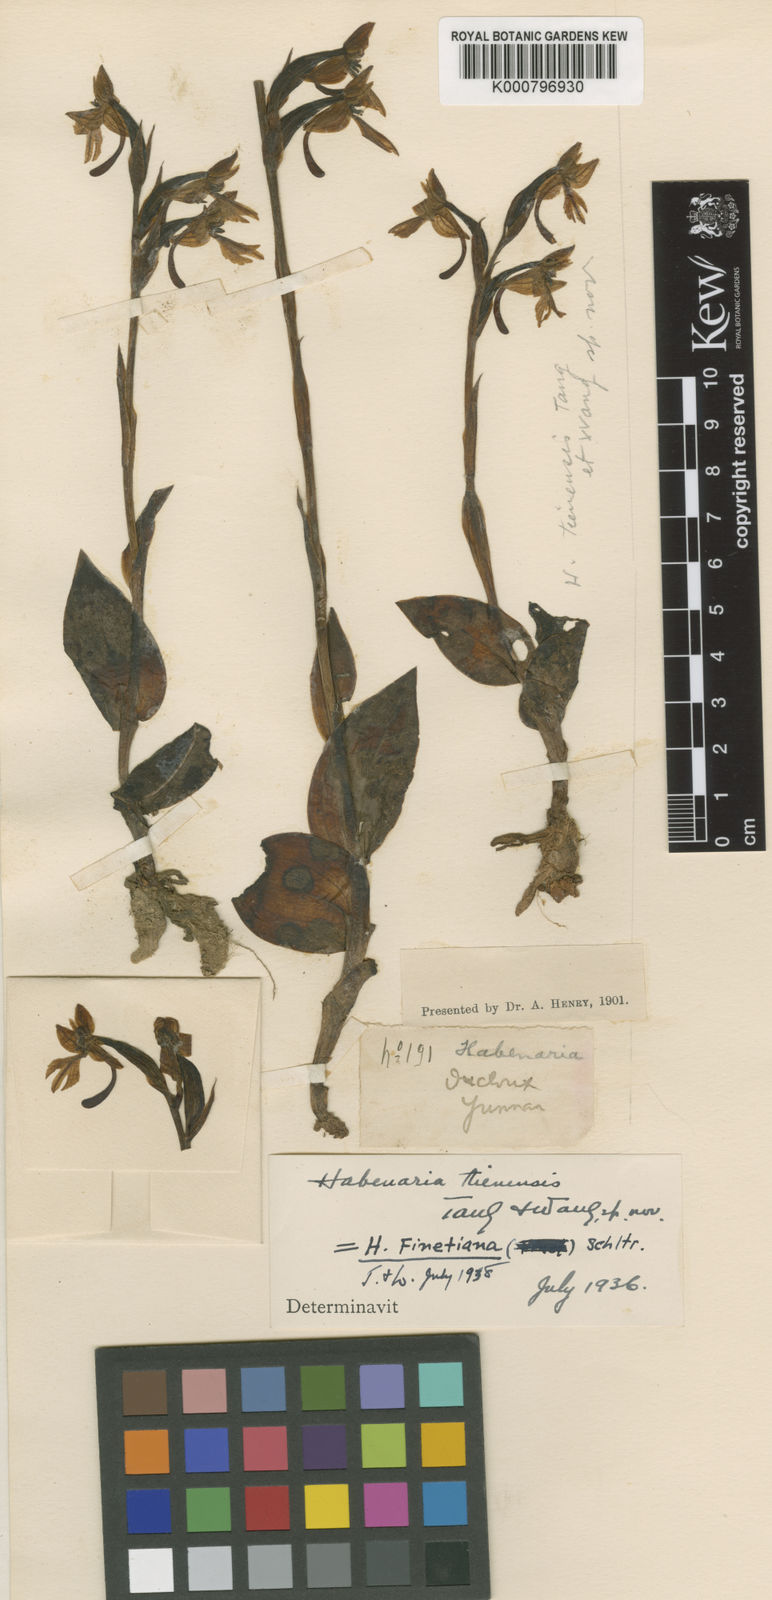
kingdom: Plantae
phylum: Tracheophyta
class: Liliopsida
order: Asparagales
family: Orchidaceae
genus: Habenaria
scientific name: Habenaria finetiana
